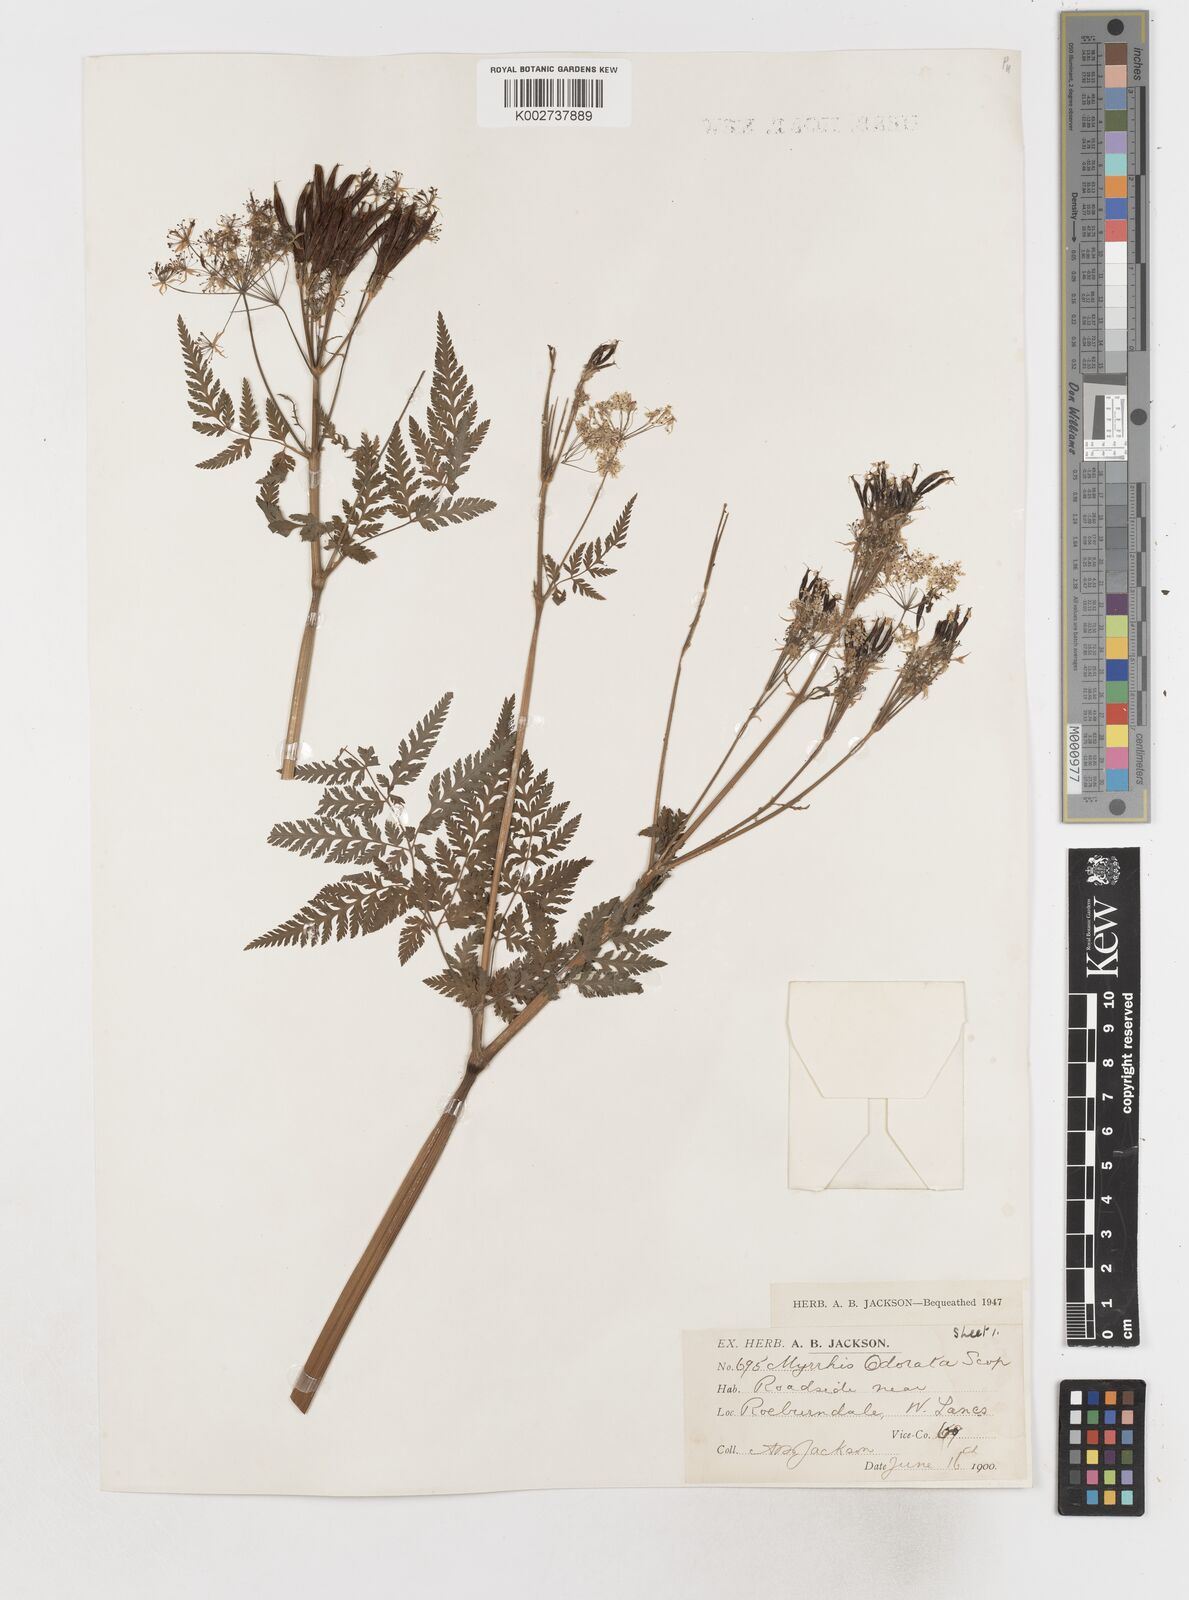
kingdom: Plantae
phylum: Tracheophyta
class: Magnoliopsida
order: Apiales
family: Apiaceae
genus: Myrrhis
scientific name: Myrrhis odorata
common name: Sweet cicely
